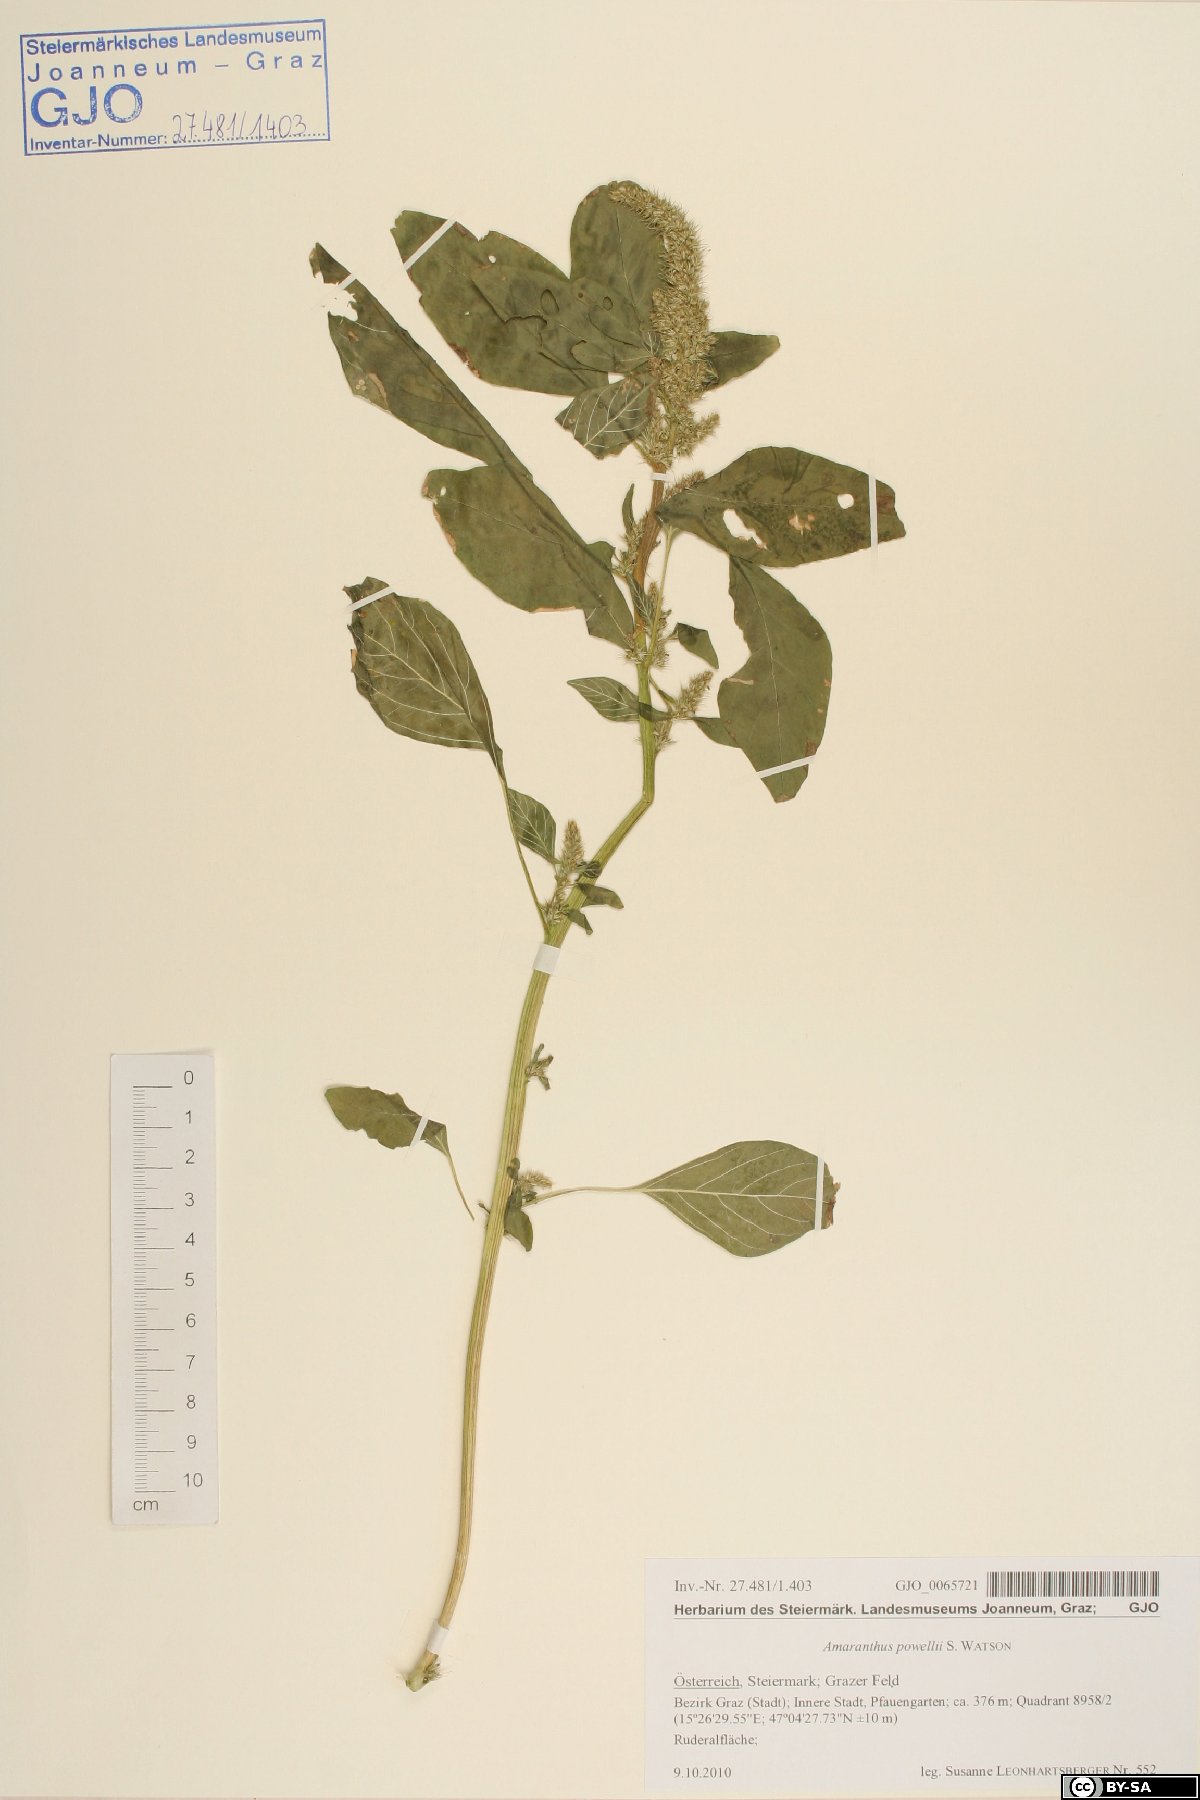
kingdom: Plantae
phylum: Tracheophyta
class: Magnoliopsida
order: Caryophyllales
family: Amaranthaceae
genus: Amaranthus
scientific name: Amaranthus powellii
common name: Powell's amaranth
